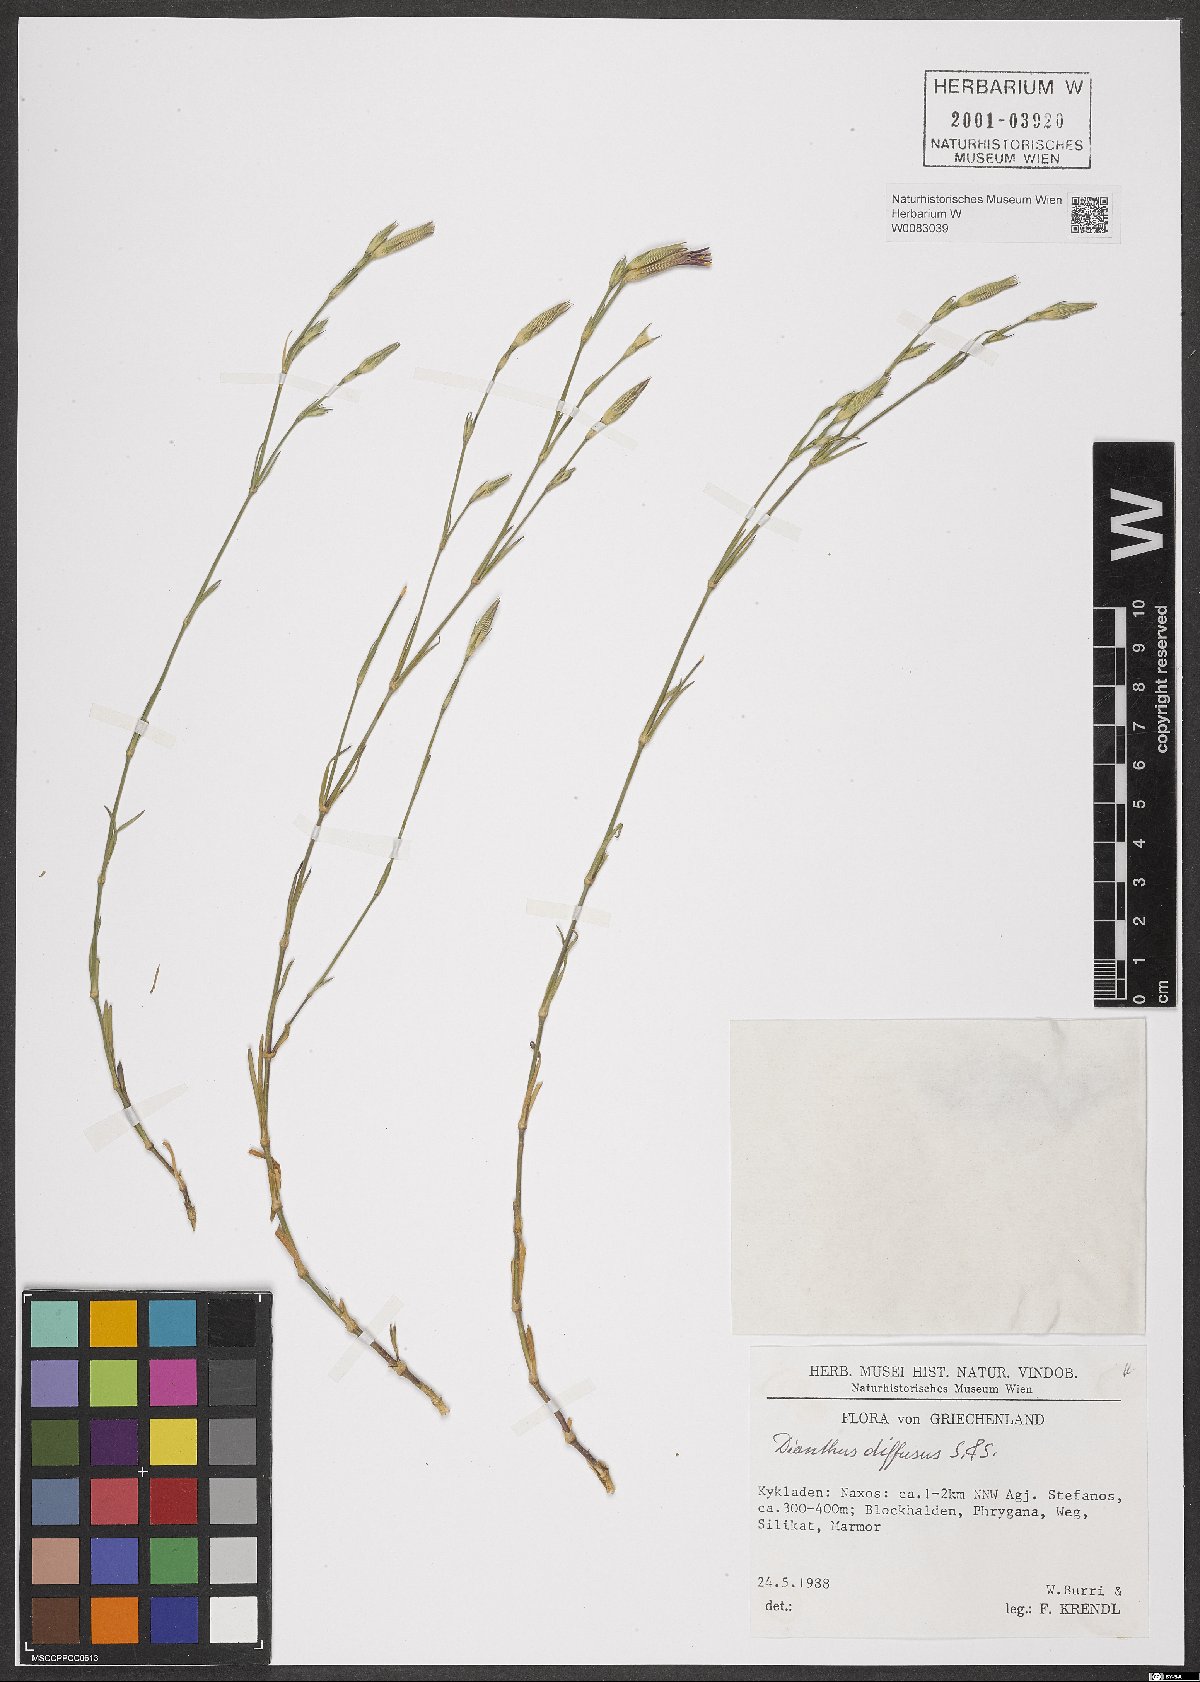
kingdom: Plantae
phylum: Tracheophyta
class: Magnoliopsida
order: Caryophyllales
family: Caryophyllaceae
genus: Dianthus
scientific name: Dianthus diffusus
